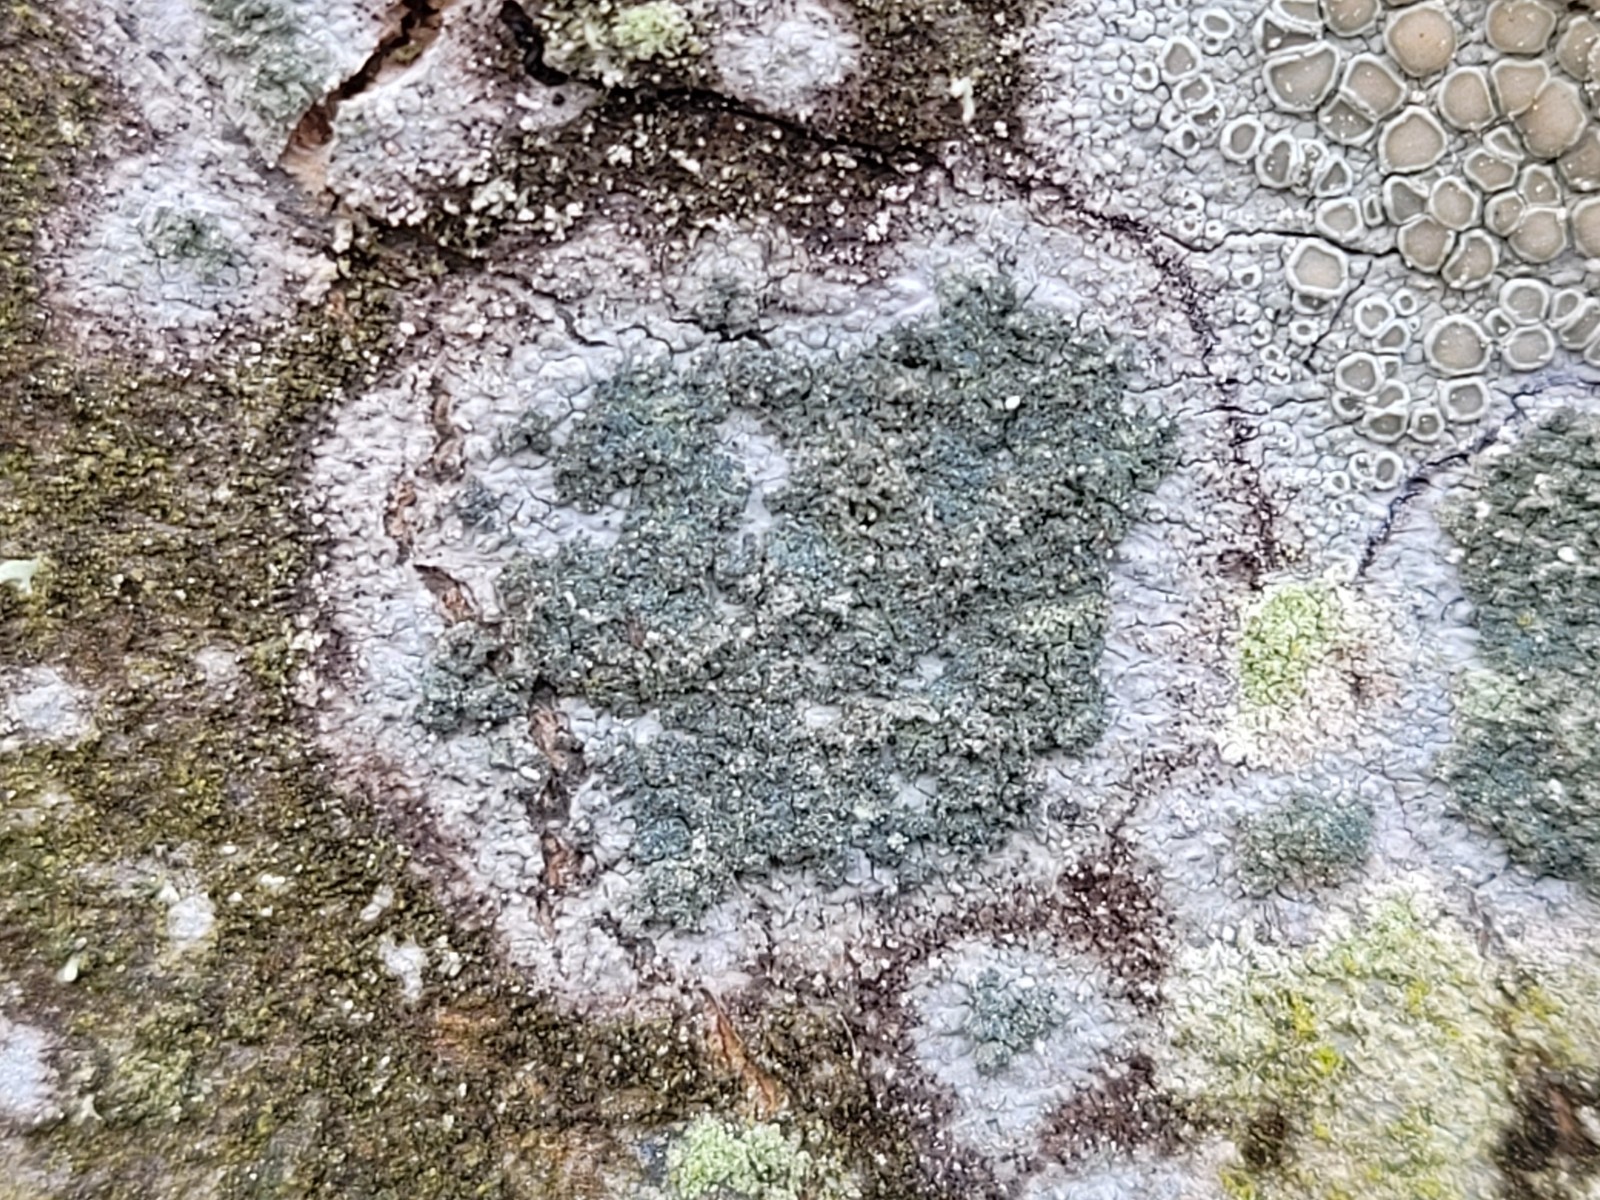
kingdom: Fungi
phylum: Ascomycota
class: Lecanoromycetes
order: Caliciales
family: Caliciaceae
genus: Buellia
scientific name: Buellia griseovirens
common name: grågrøn sortskivelav
